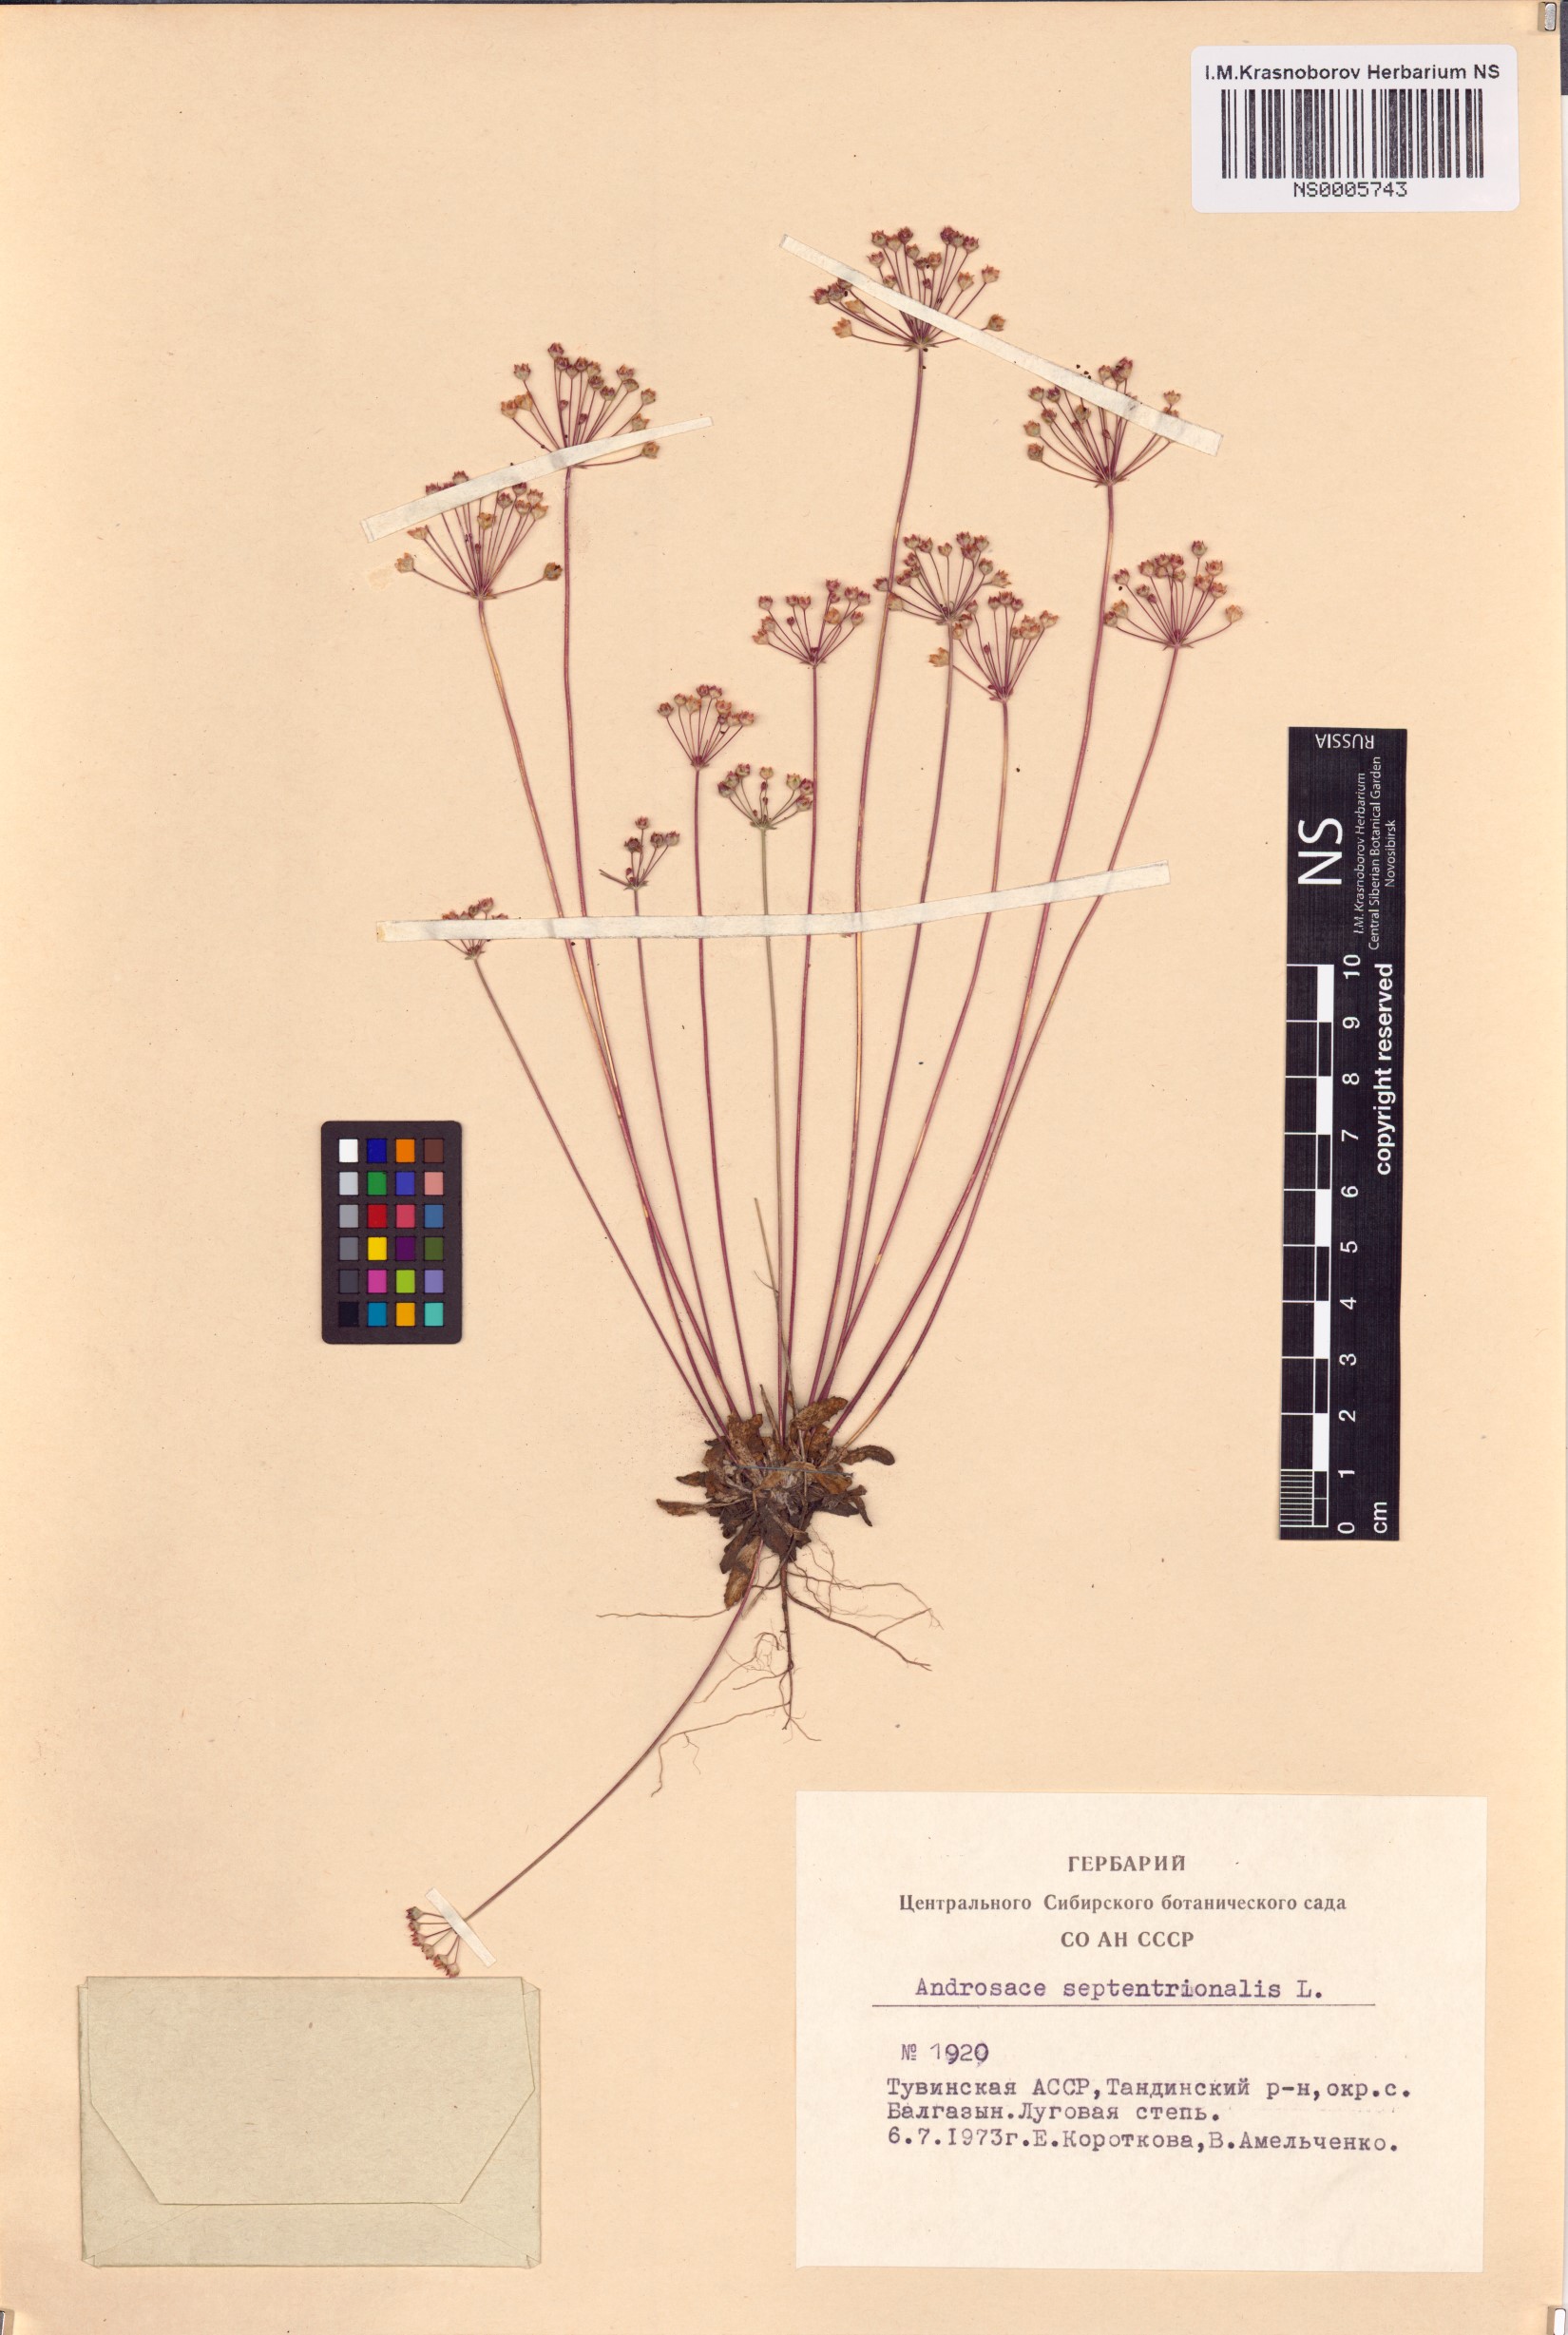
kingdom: Plantae
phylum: Tracheophyta
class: Magnoliopsida
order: Ericales
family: Primulaceae
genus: Androsace
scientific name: Androsace septentrionalis
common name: Hairy northern fairy-candelabra
